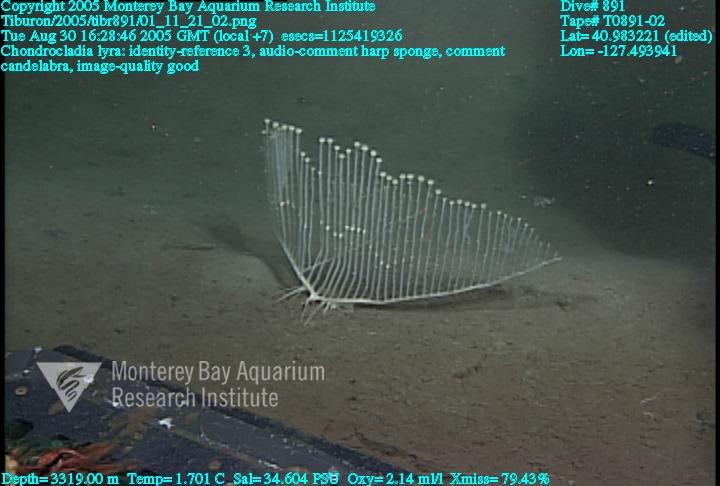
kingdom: Animalia
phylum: Porifera
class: Demospongiae
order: Poecilosclerida
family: Cladorhizidae
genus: Chondrocladia
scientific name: Chondrocladia lyra
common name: Harp sponge
